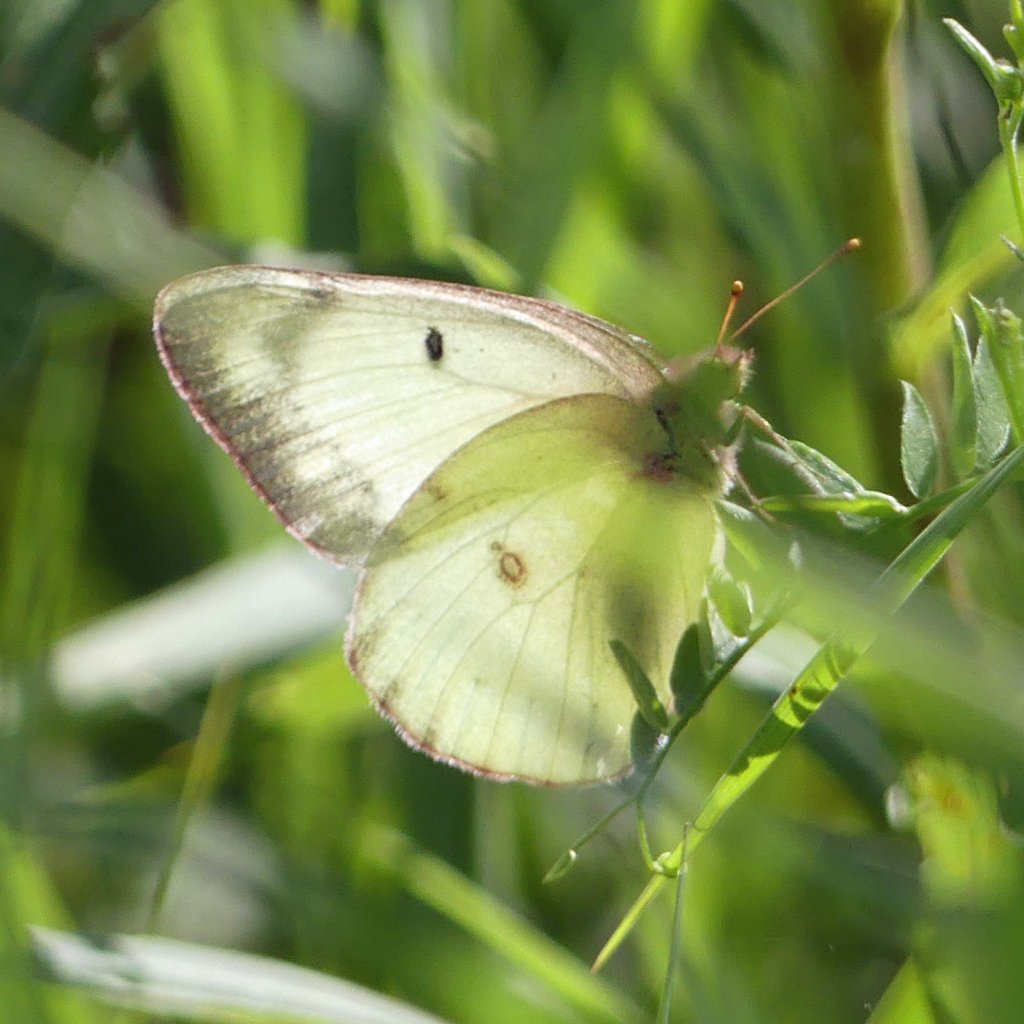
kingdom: Animalia
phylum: Arthropoda
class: Insecta
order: Lepidoptera
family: Pieridae
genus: Colias
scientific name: Colias philodice
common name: Clouded Sulphur
